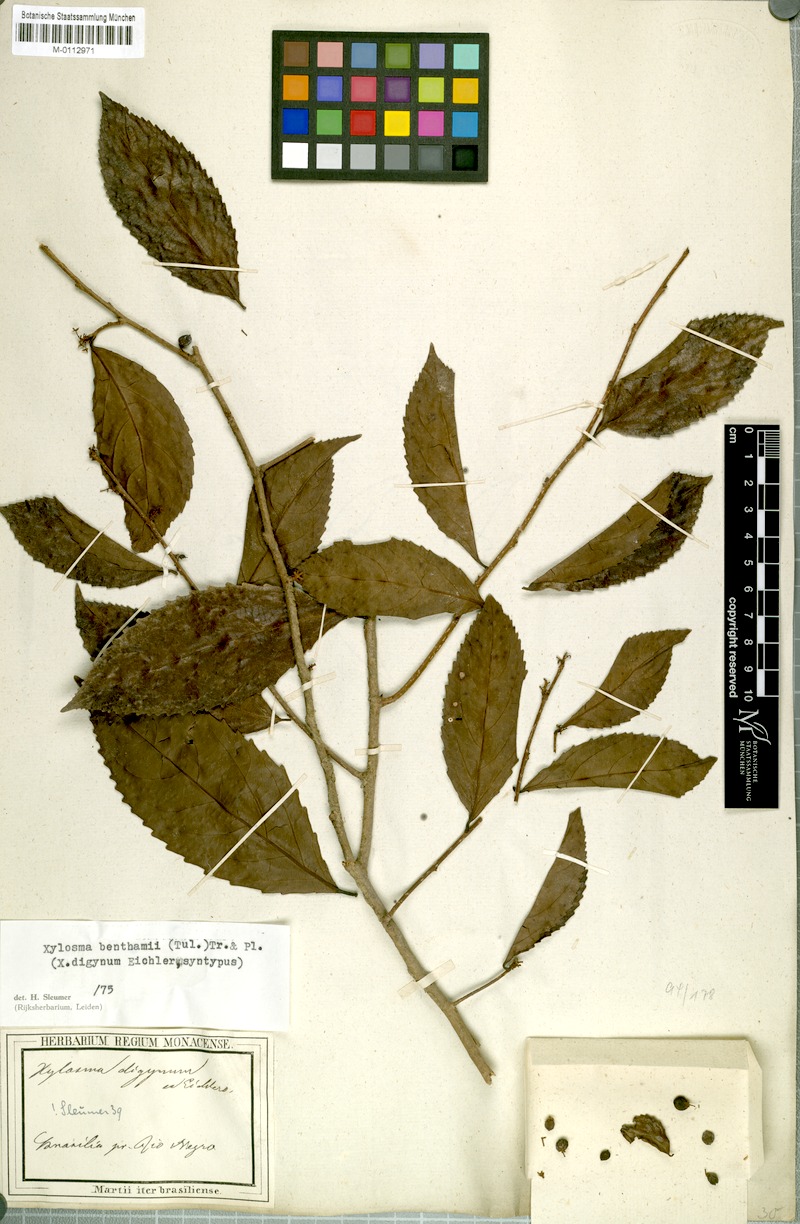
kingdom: Plantae
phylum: Tracheophyta
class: Magnoliopsida
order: Malpighiales
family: Salicaceae
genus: Xylosma
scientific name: Xylosma benthamii
